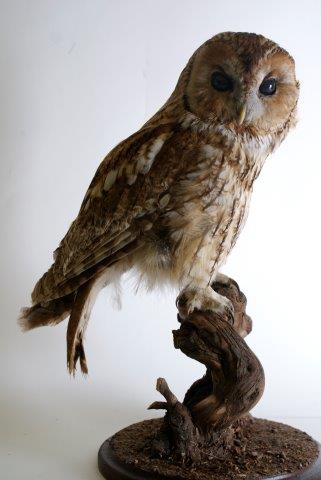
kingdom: Animalia
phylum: Chordata
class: Aves
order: Strigiformes
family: Strigidae
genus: Strix
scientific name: Strix aluco
